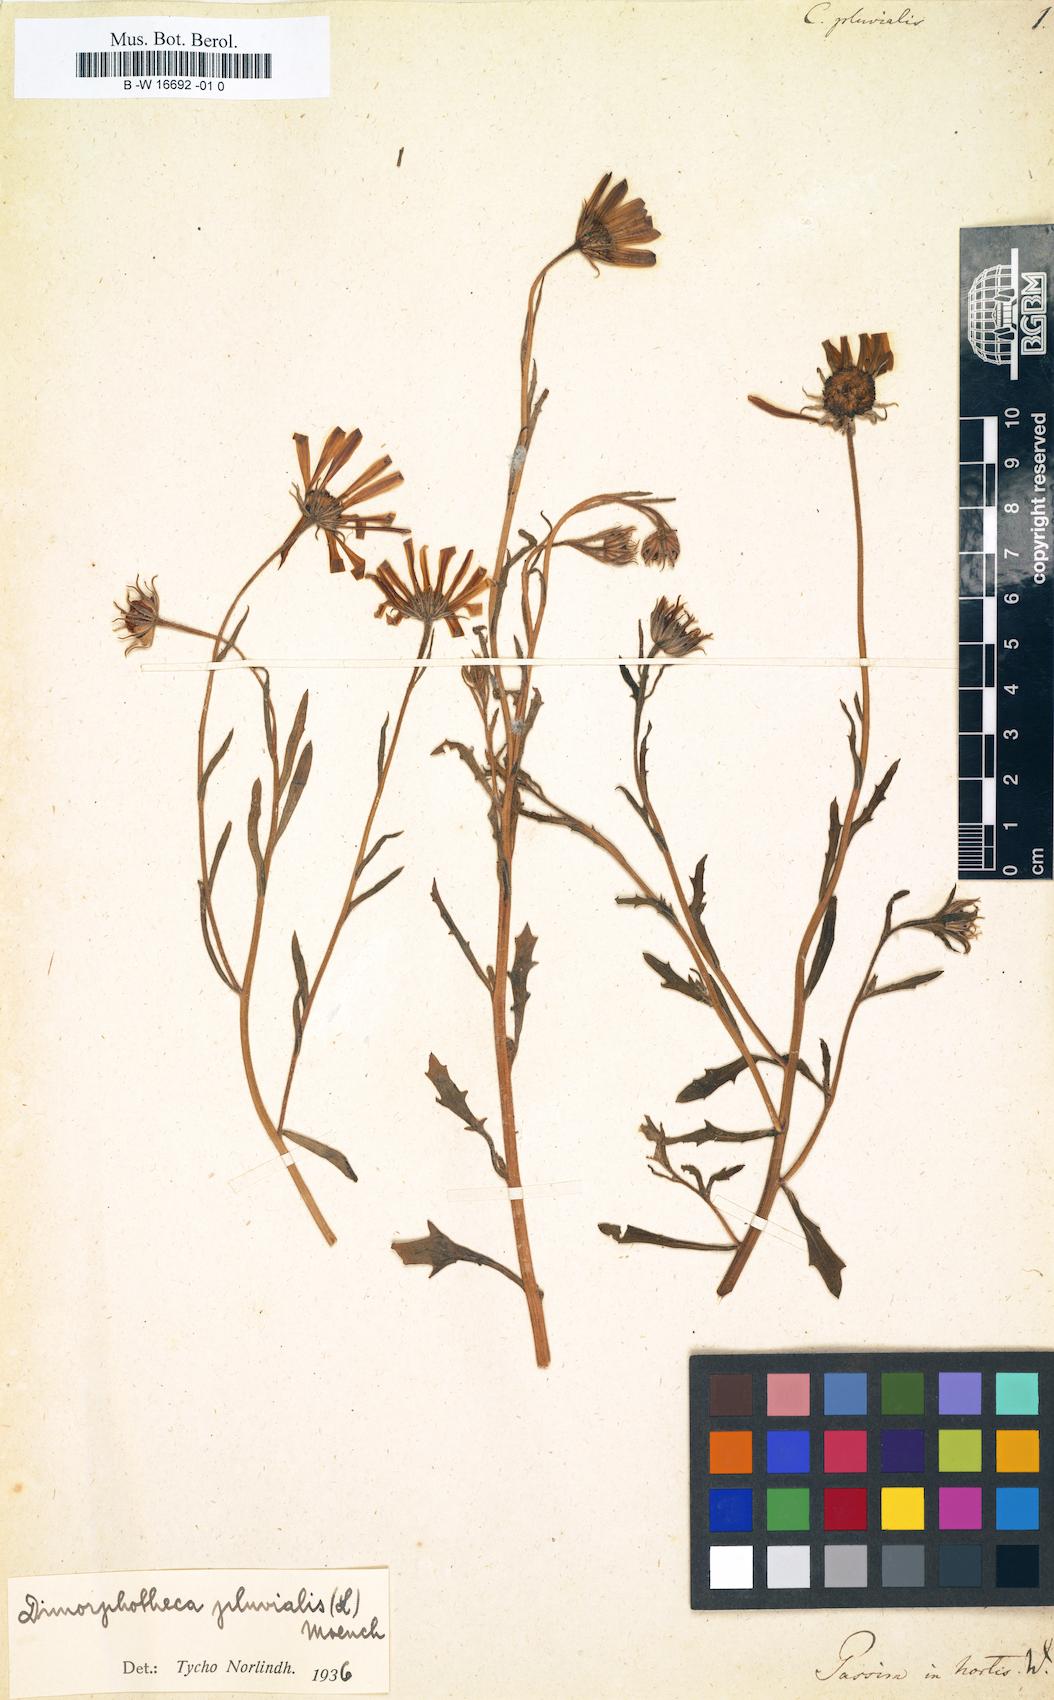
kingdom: Plantae
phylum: Tracheophyta
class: Magnoliopsida
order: Asterales
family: Asteraceae
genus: Calendula
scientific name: Calendula pluvialis
